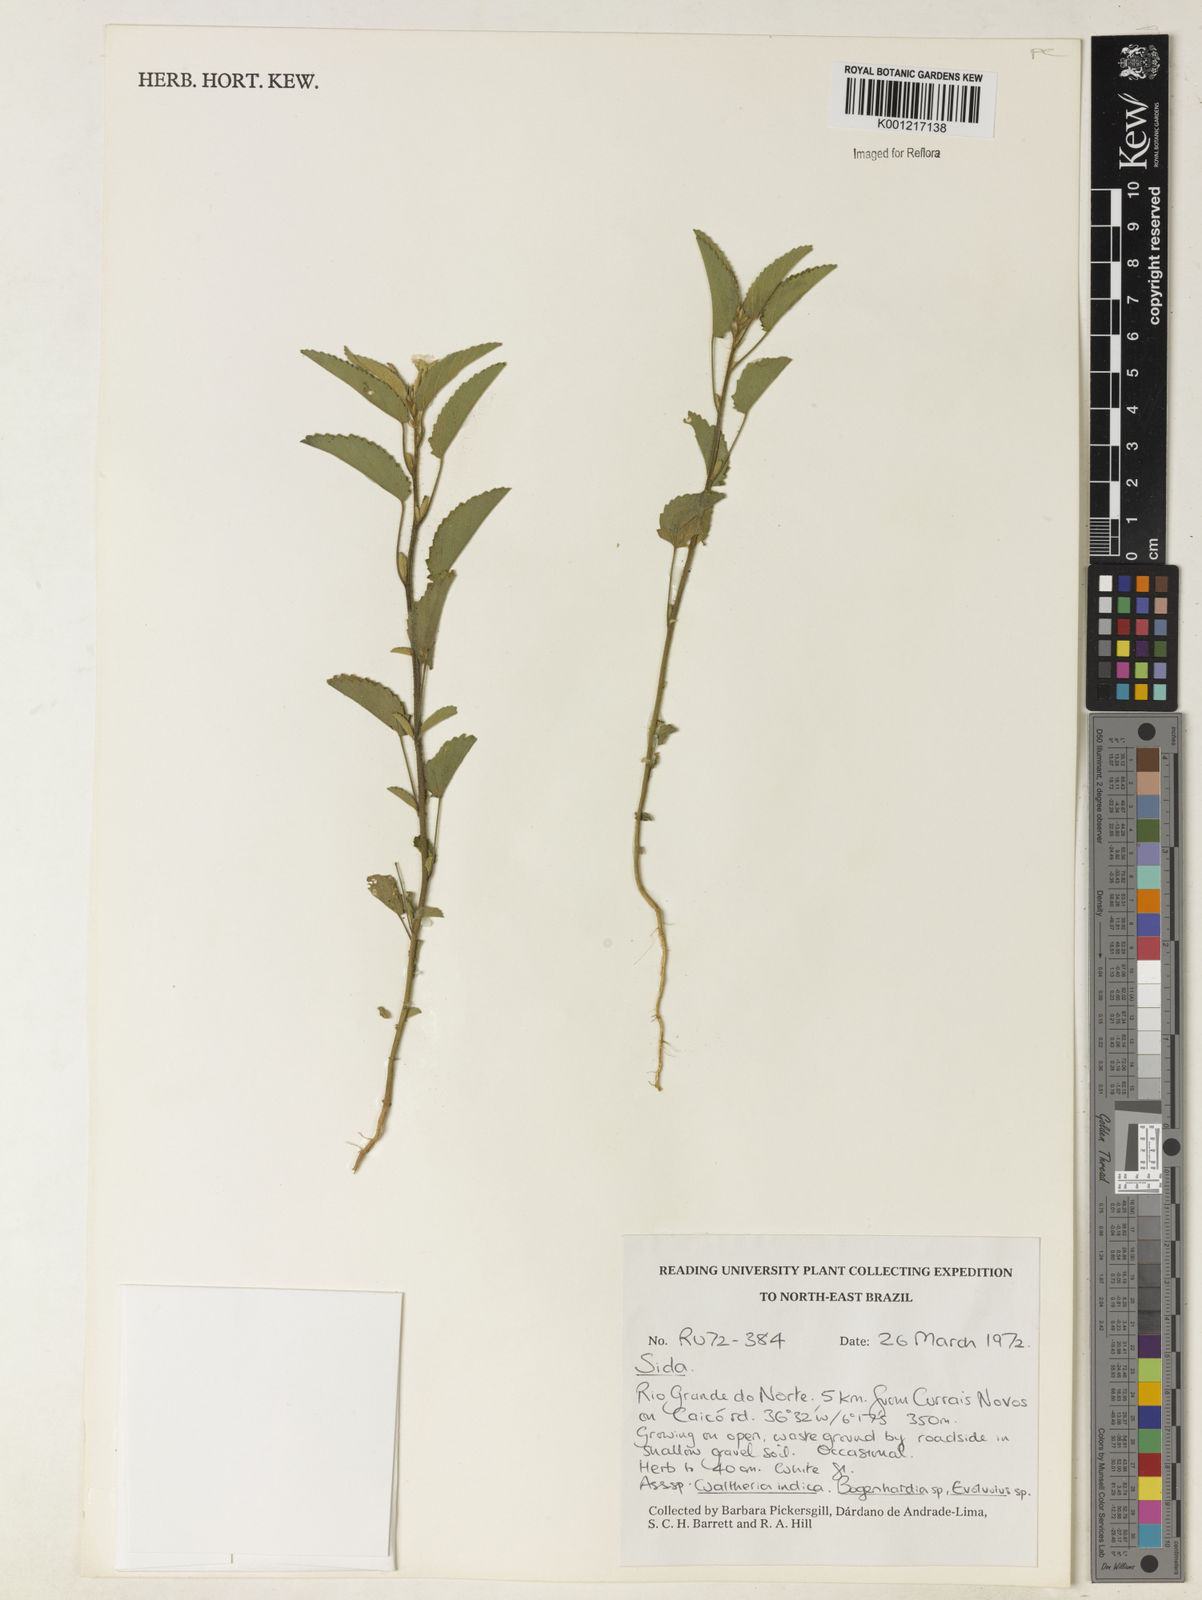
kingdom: Plantae
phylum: Tracheophyta
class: Magnoliopsida
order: Malvales
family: Malvaceae
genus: Sida
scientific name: Sida
